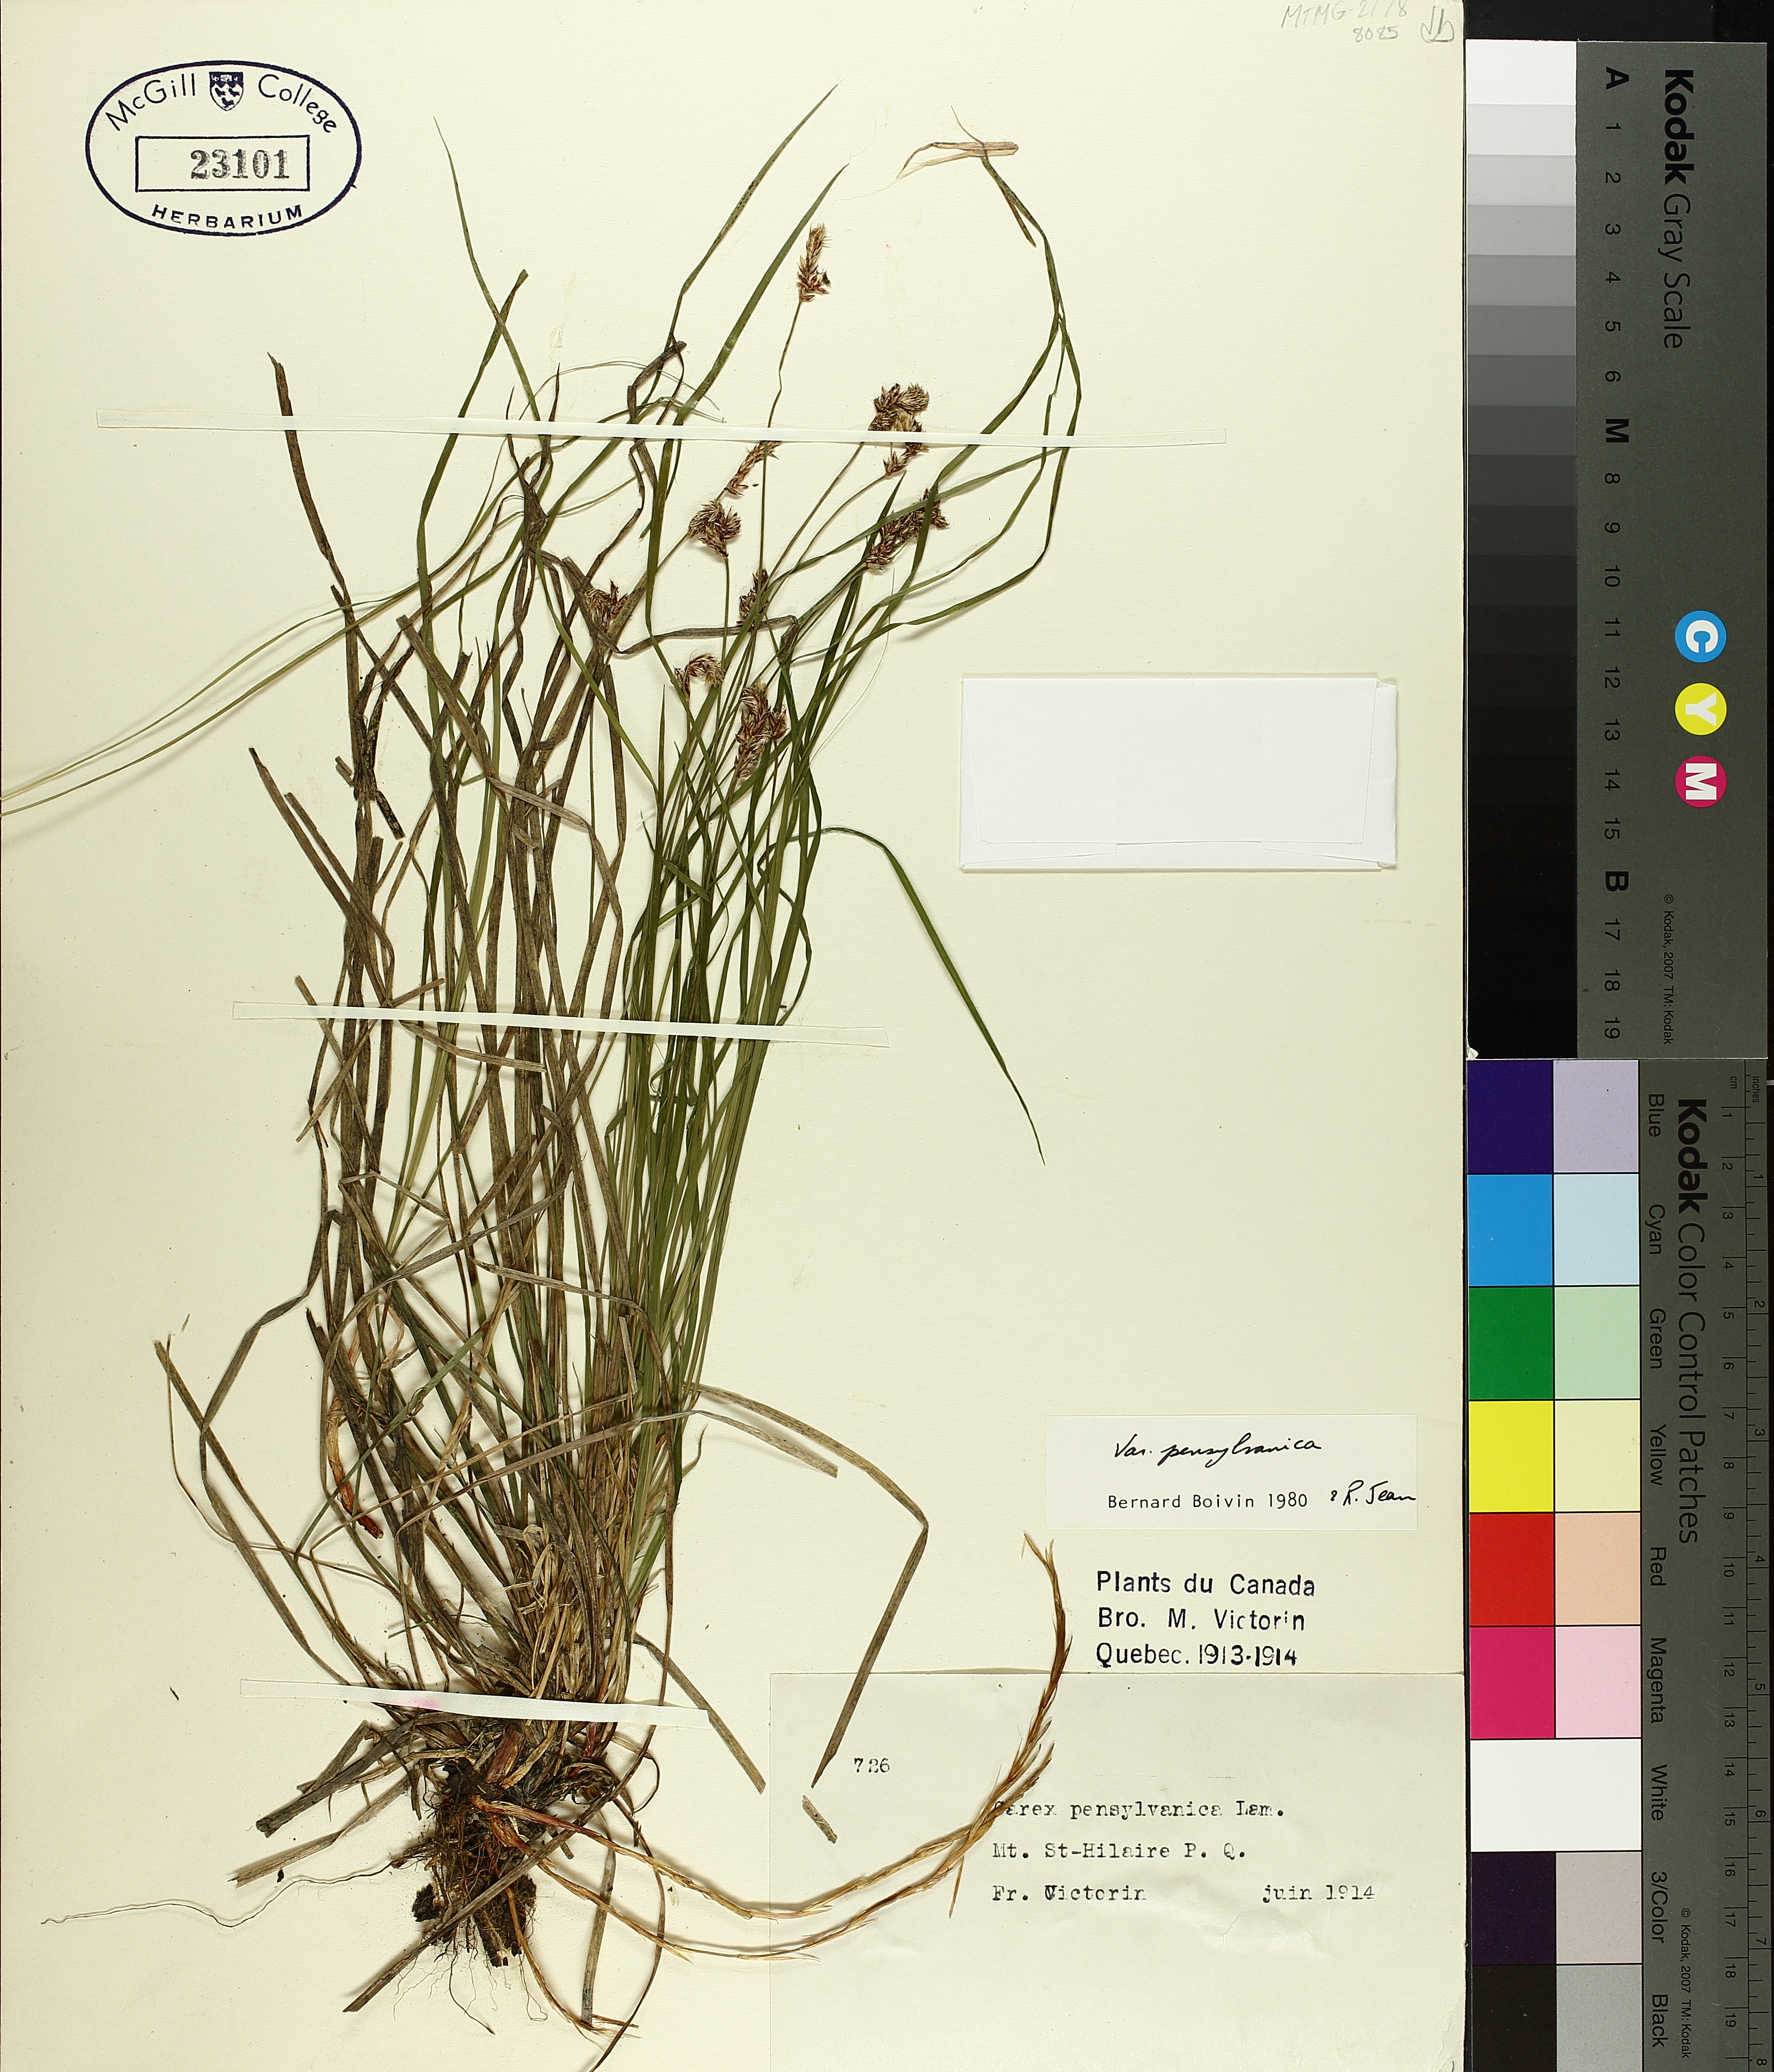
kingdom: Plantae
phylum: Tracheophyta
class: Liliopsida
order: Poales
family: Cyperaceae
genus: Carex
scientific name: Carex pensylvanica
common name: Common oak sedge
